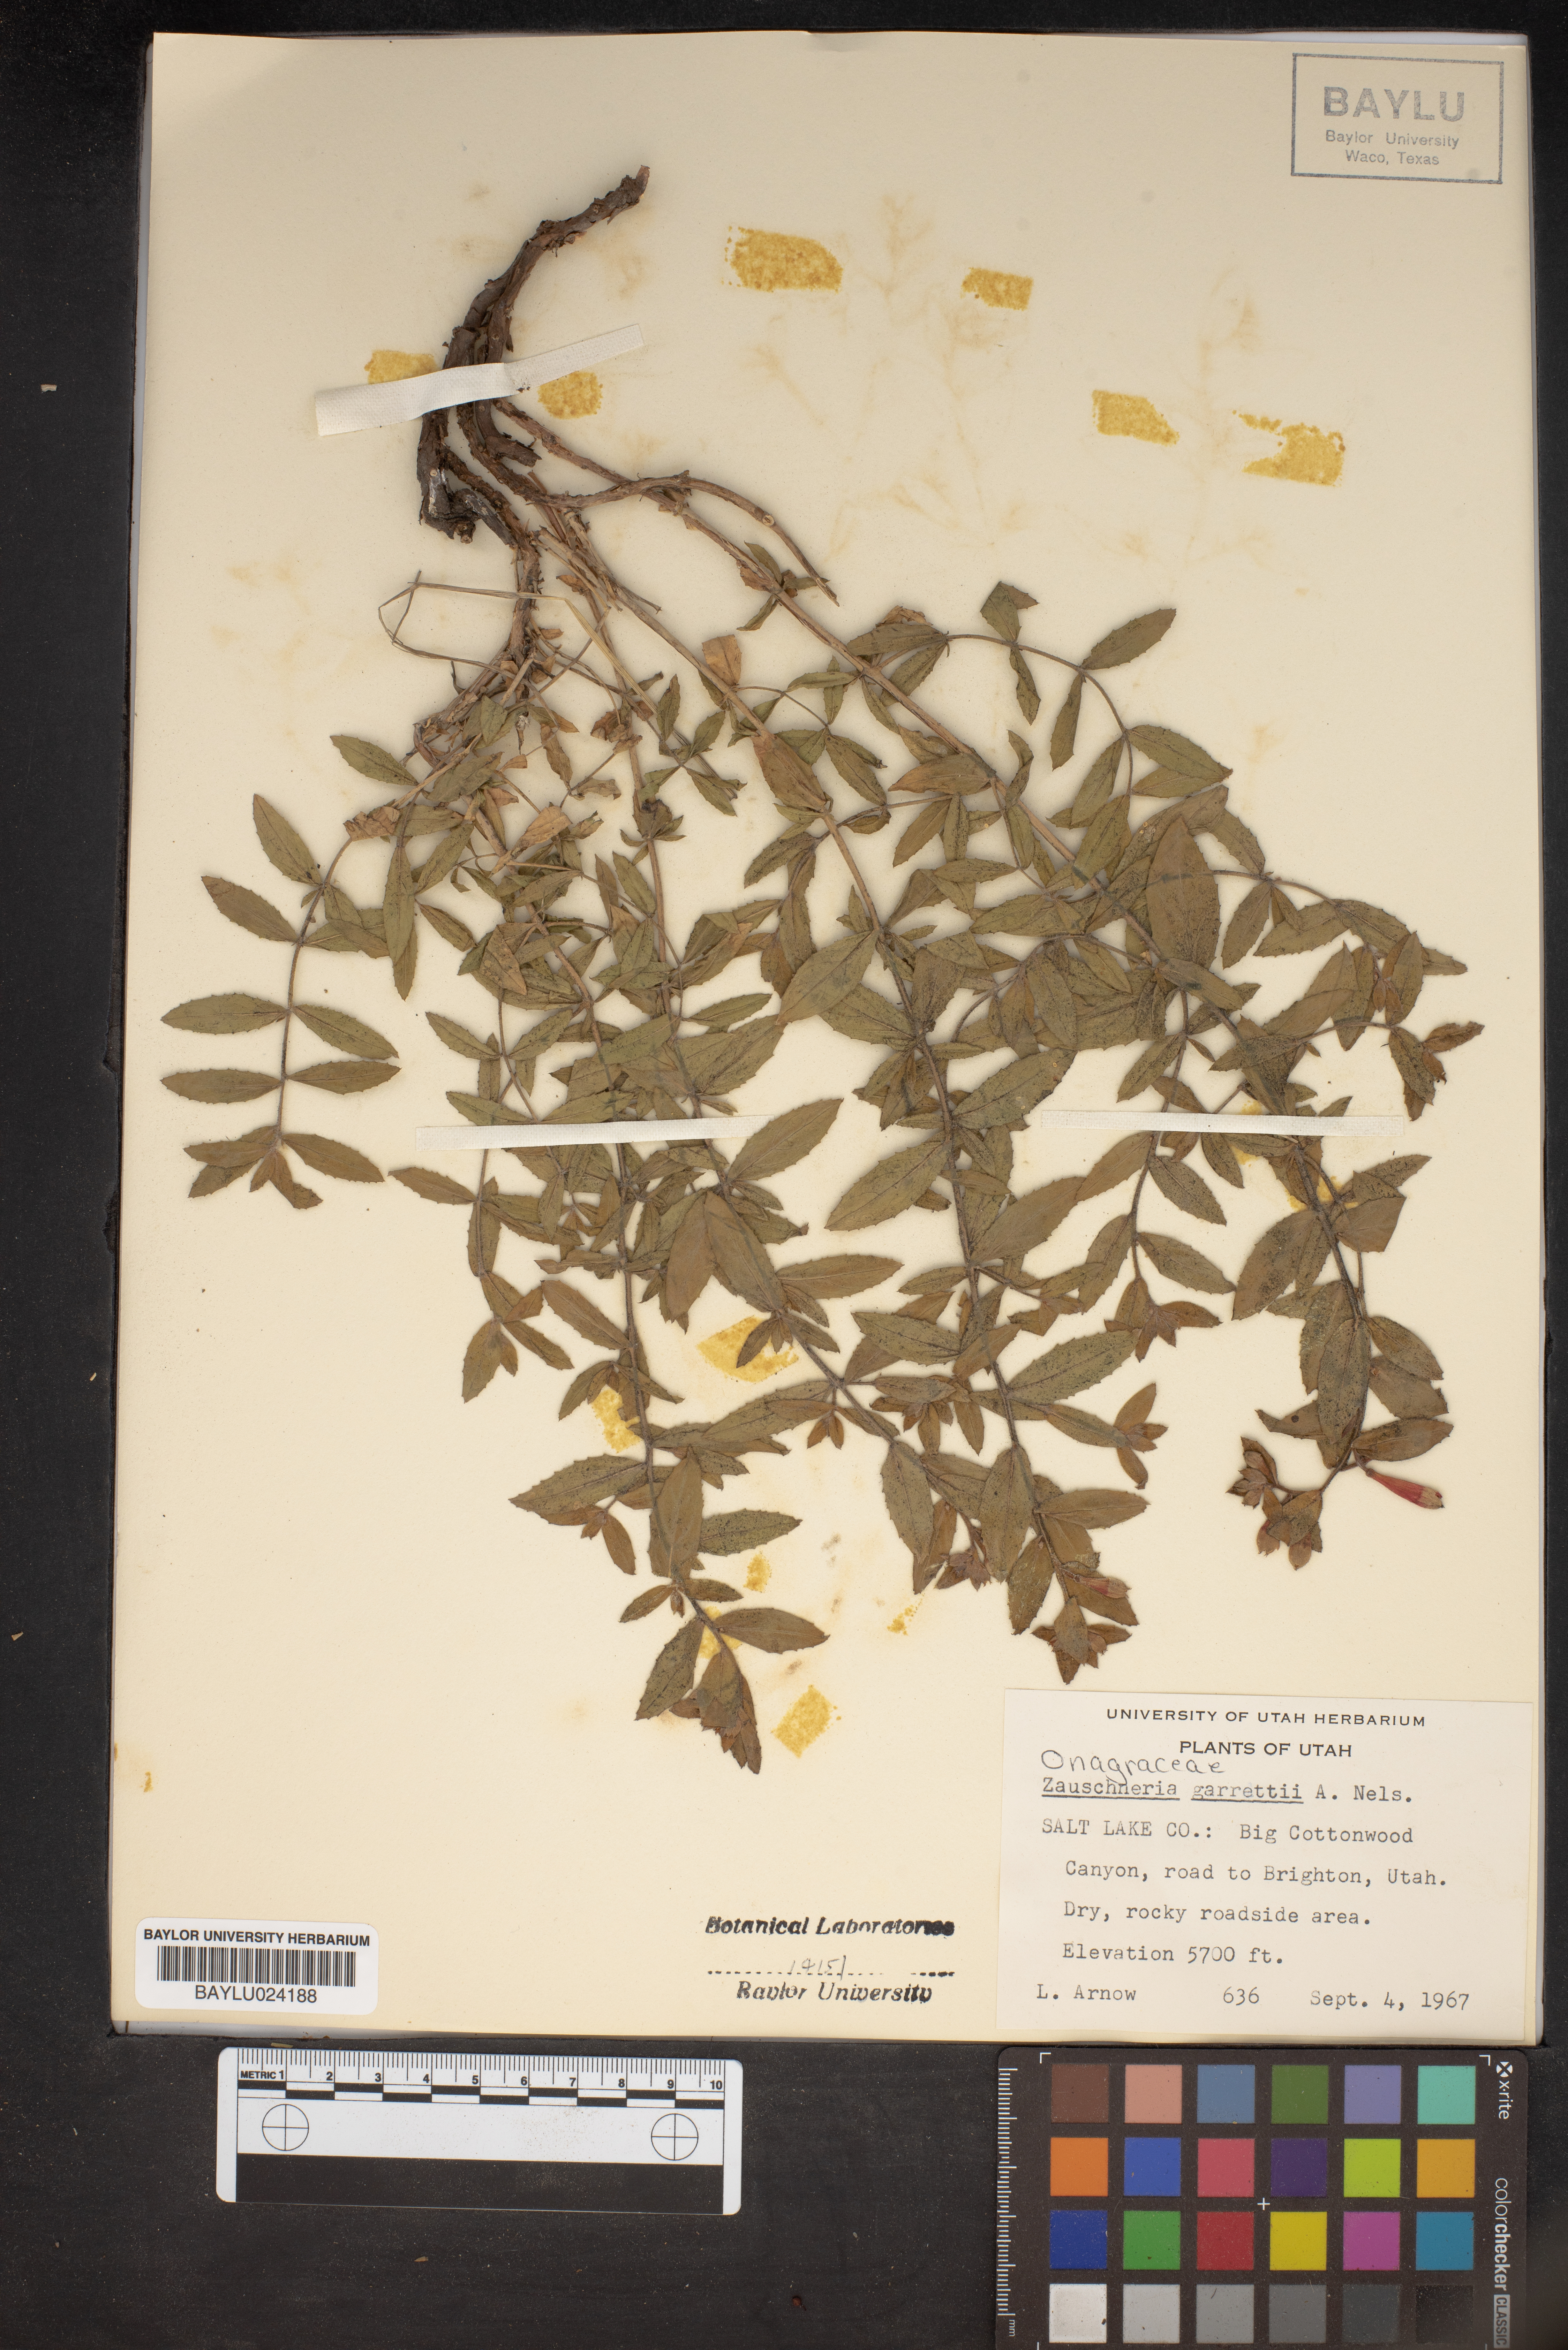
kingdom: Plantae
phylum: Tracheophyta
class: Magnoliopsida
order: Myrtales
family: Onagraceae
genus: Epilobium
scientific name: Epilobium canum
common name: California-fuchsia
